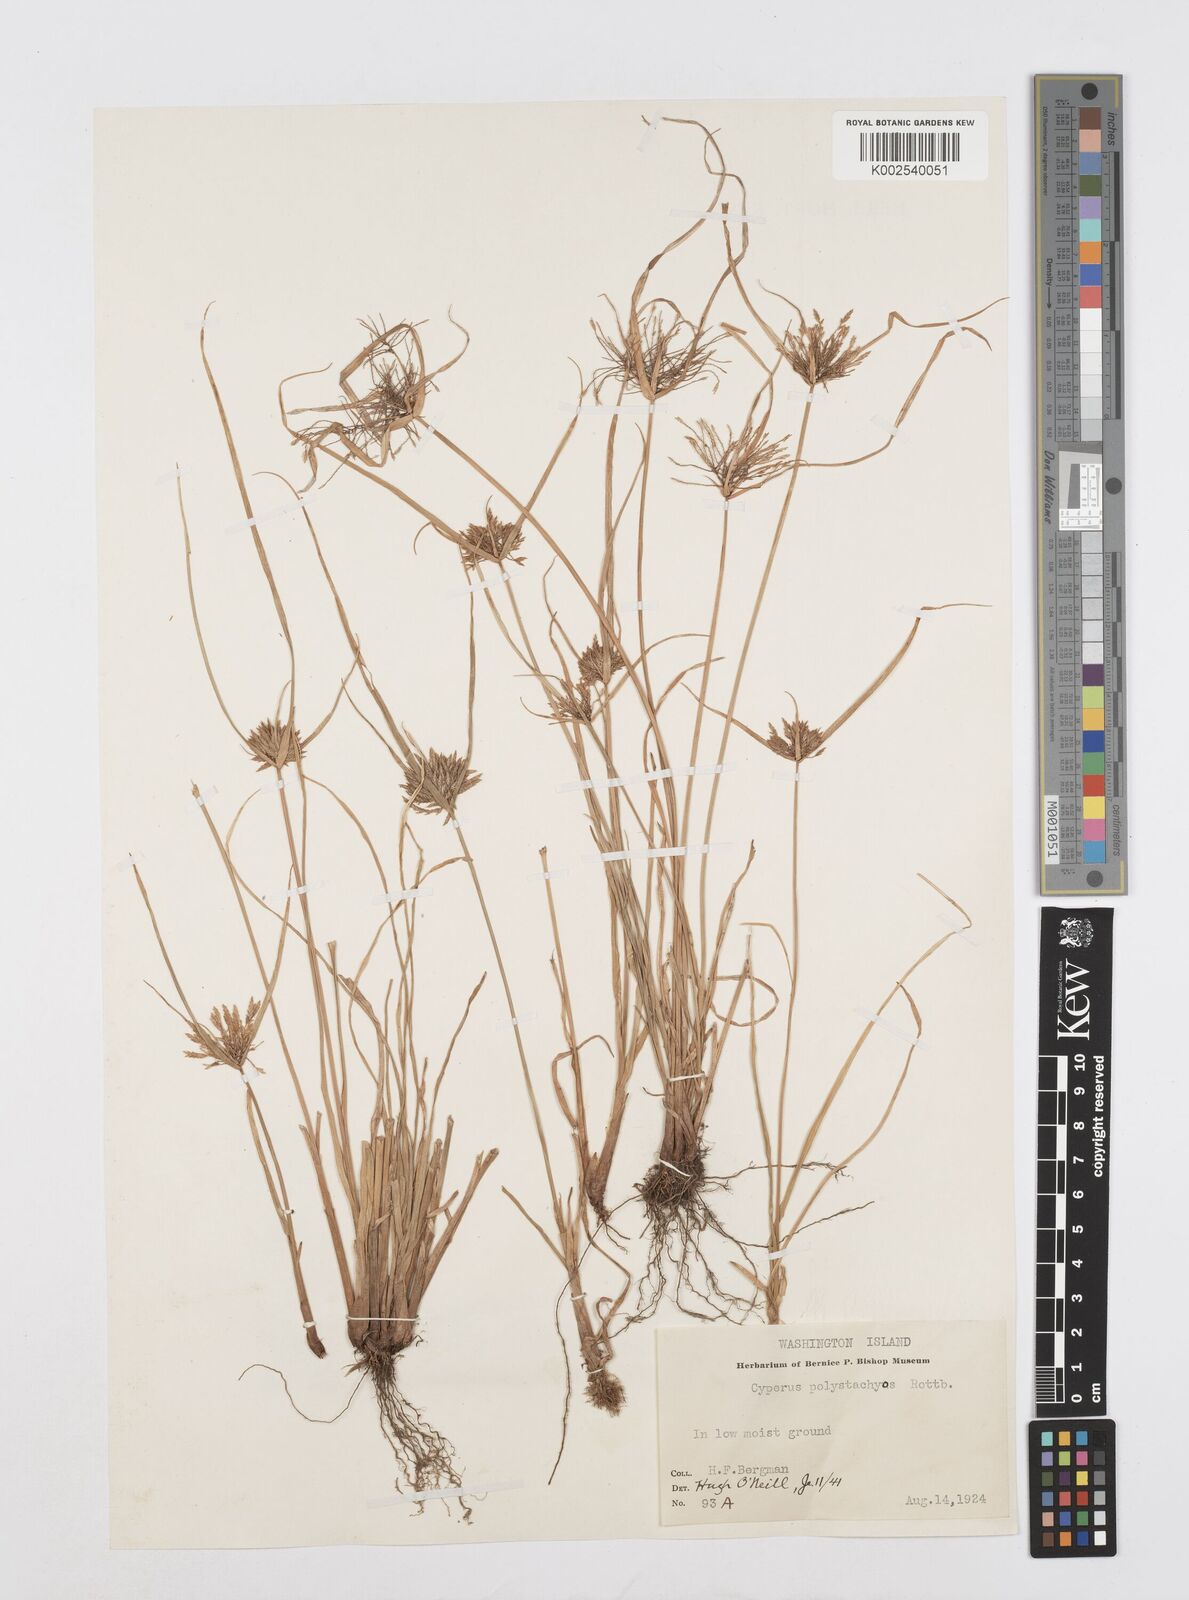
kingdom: Plantae
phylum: Tracheophyta
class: Liliopsida
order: Poales
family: Cyperaceae
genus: Cyperus
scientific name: Cyperus polystachyos
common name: Bunchy flat sedge
